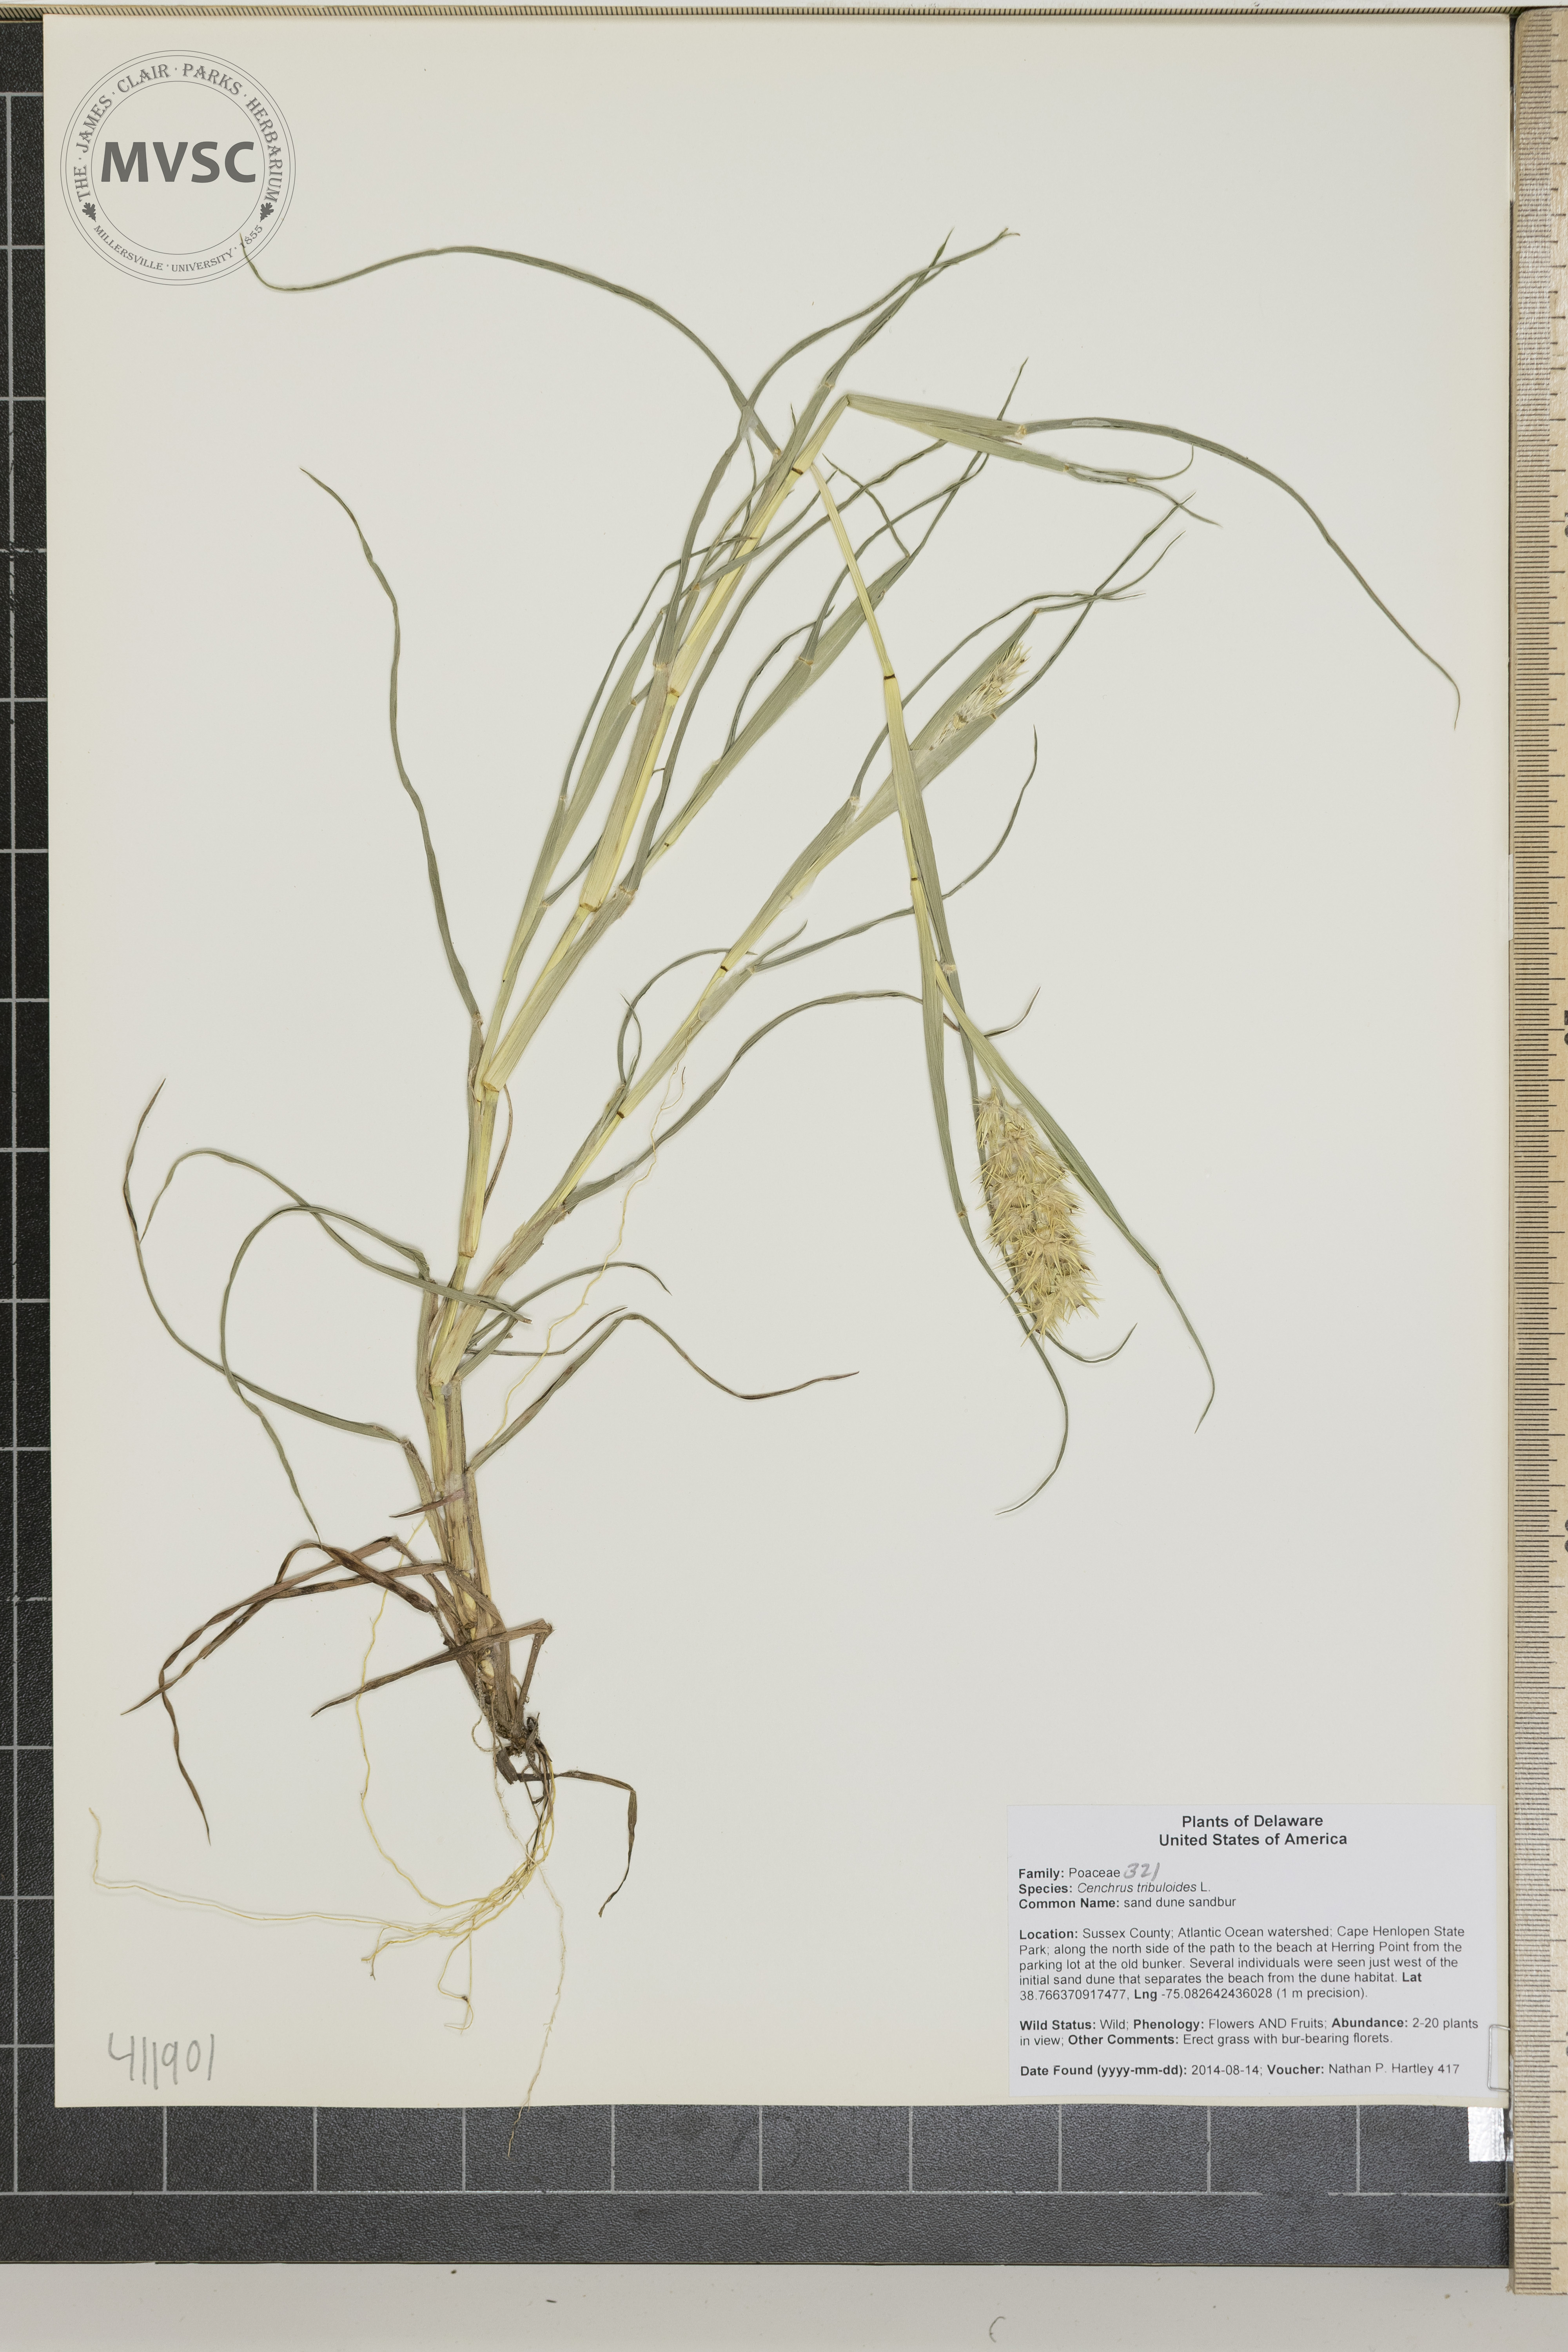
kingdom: Plantae
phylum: Tracheophyta
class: Liliopsida
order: Poales
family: Poaceae
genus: Cenchrus
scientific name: Cenchrus tribuloides
